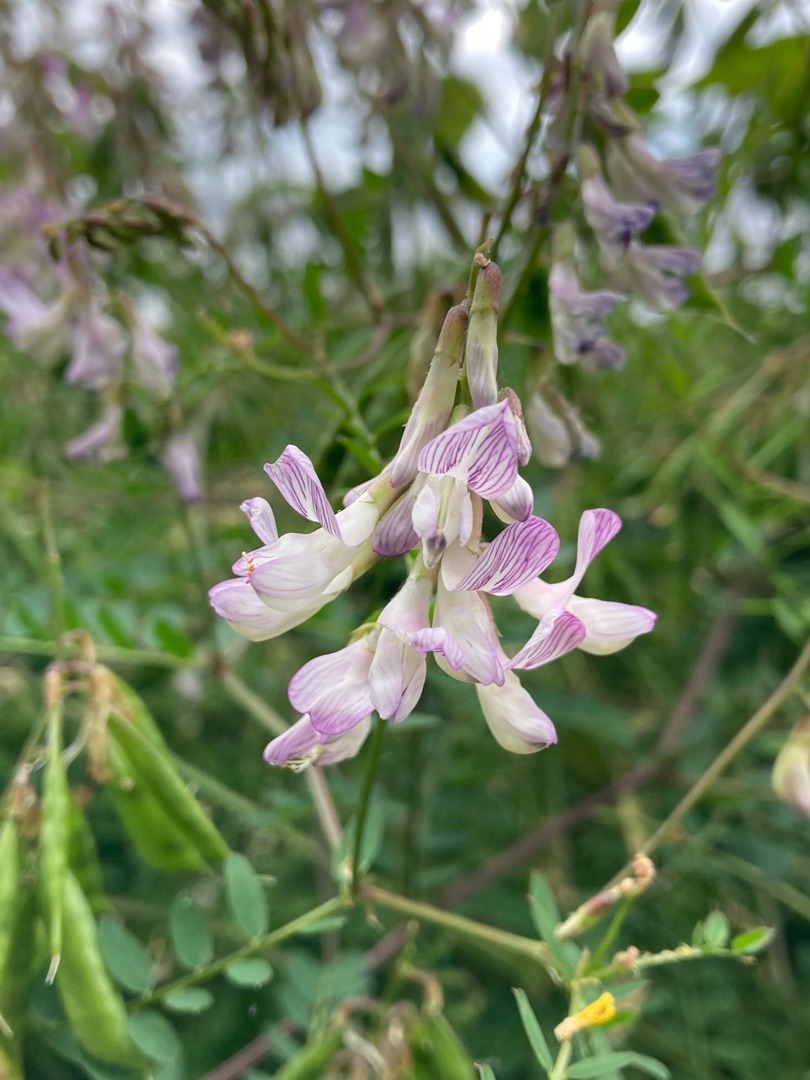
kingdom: Plantae
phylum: Tracheophyta
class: Magnoliopsida
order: Fabales
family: Fabaceae
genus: Vicia
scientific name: Vicia sylvatica
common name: Skov-vikke
